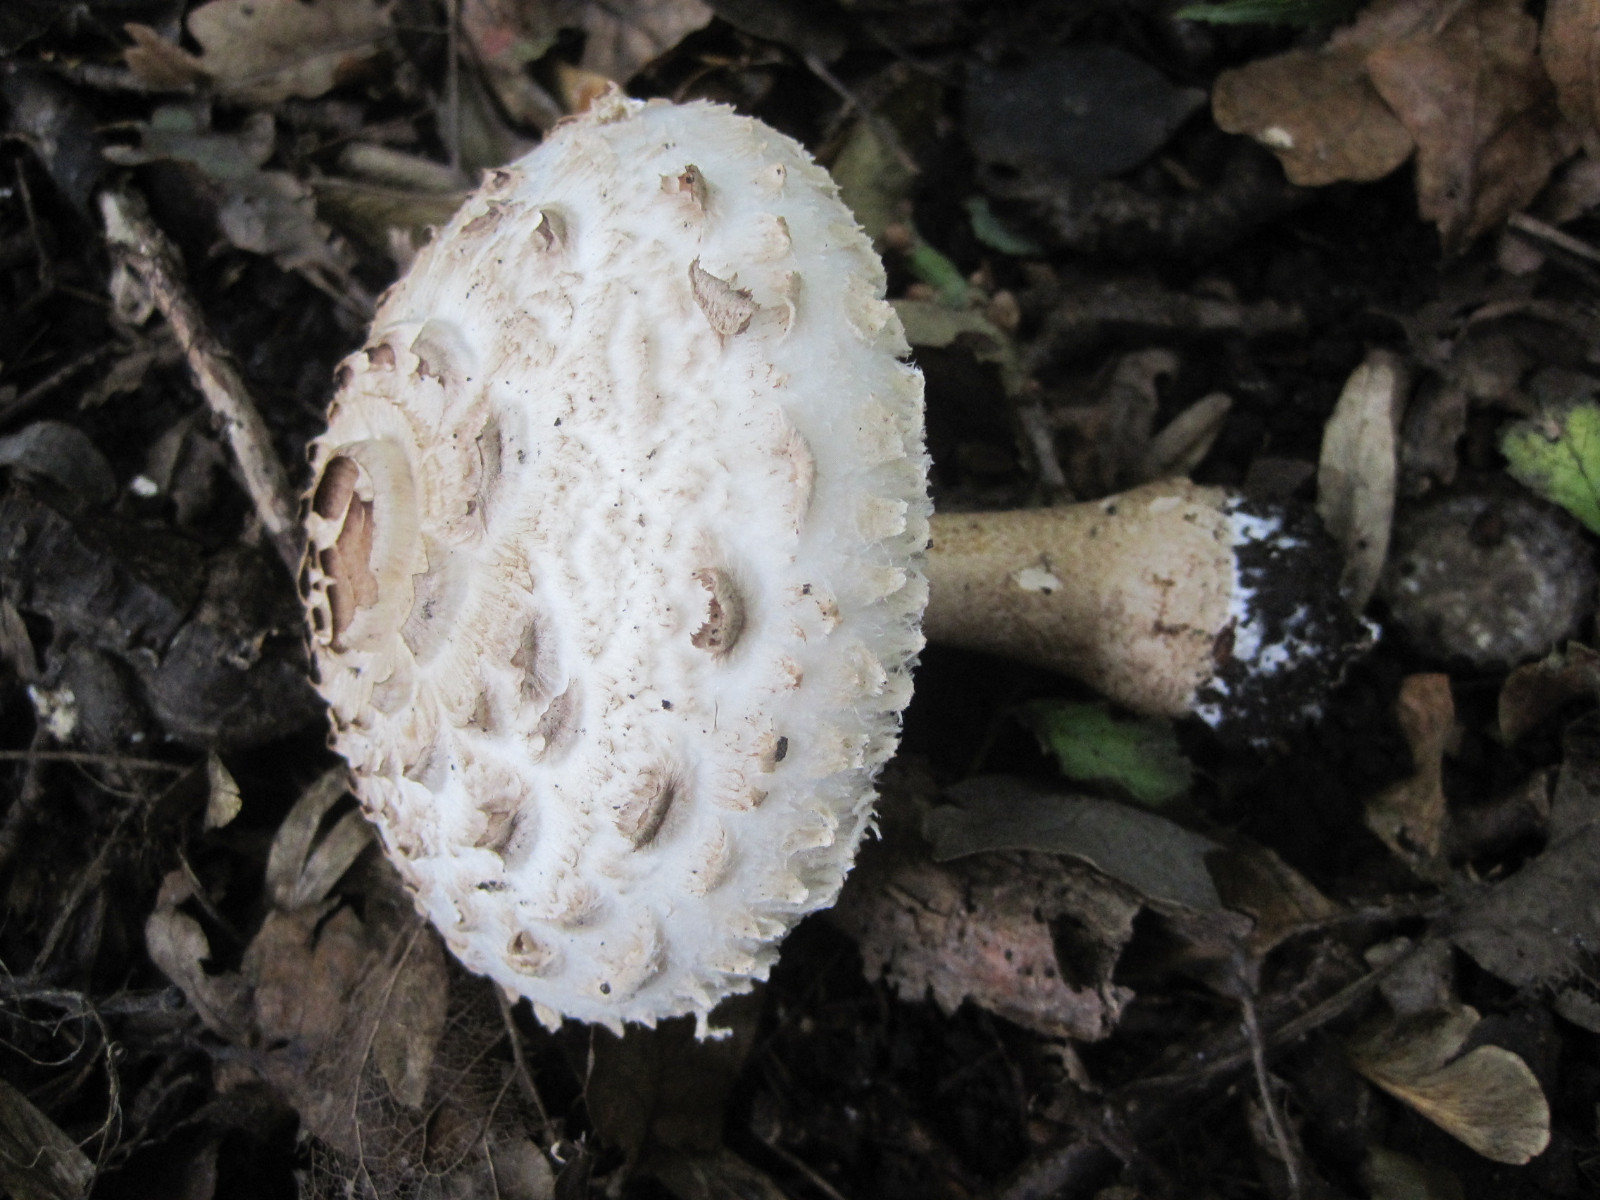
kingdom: Fungi
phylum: Basidiomycota
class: Agaricomycetes
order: Agaricales
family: Agaricaceae
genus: Chlorophyllum
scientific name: Chlorophyllum brunneum
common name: giftig rabarberhat
